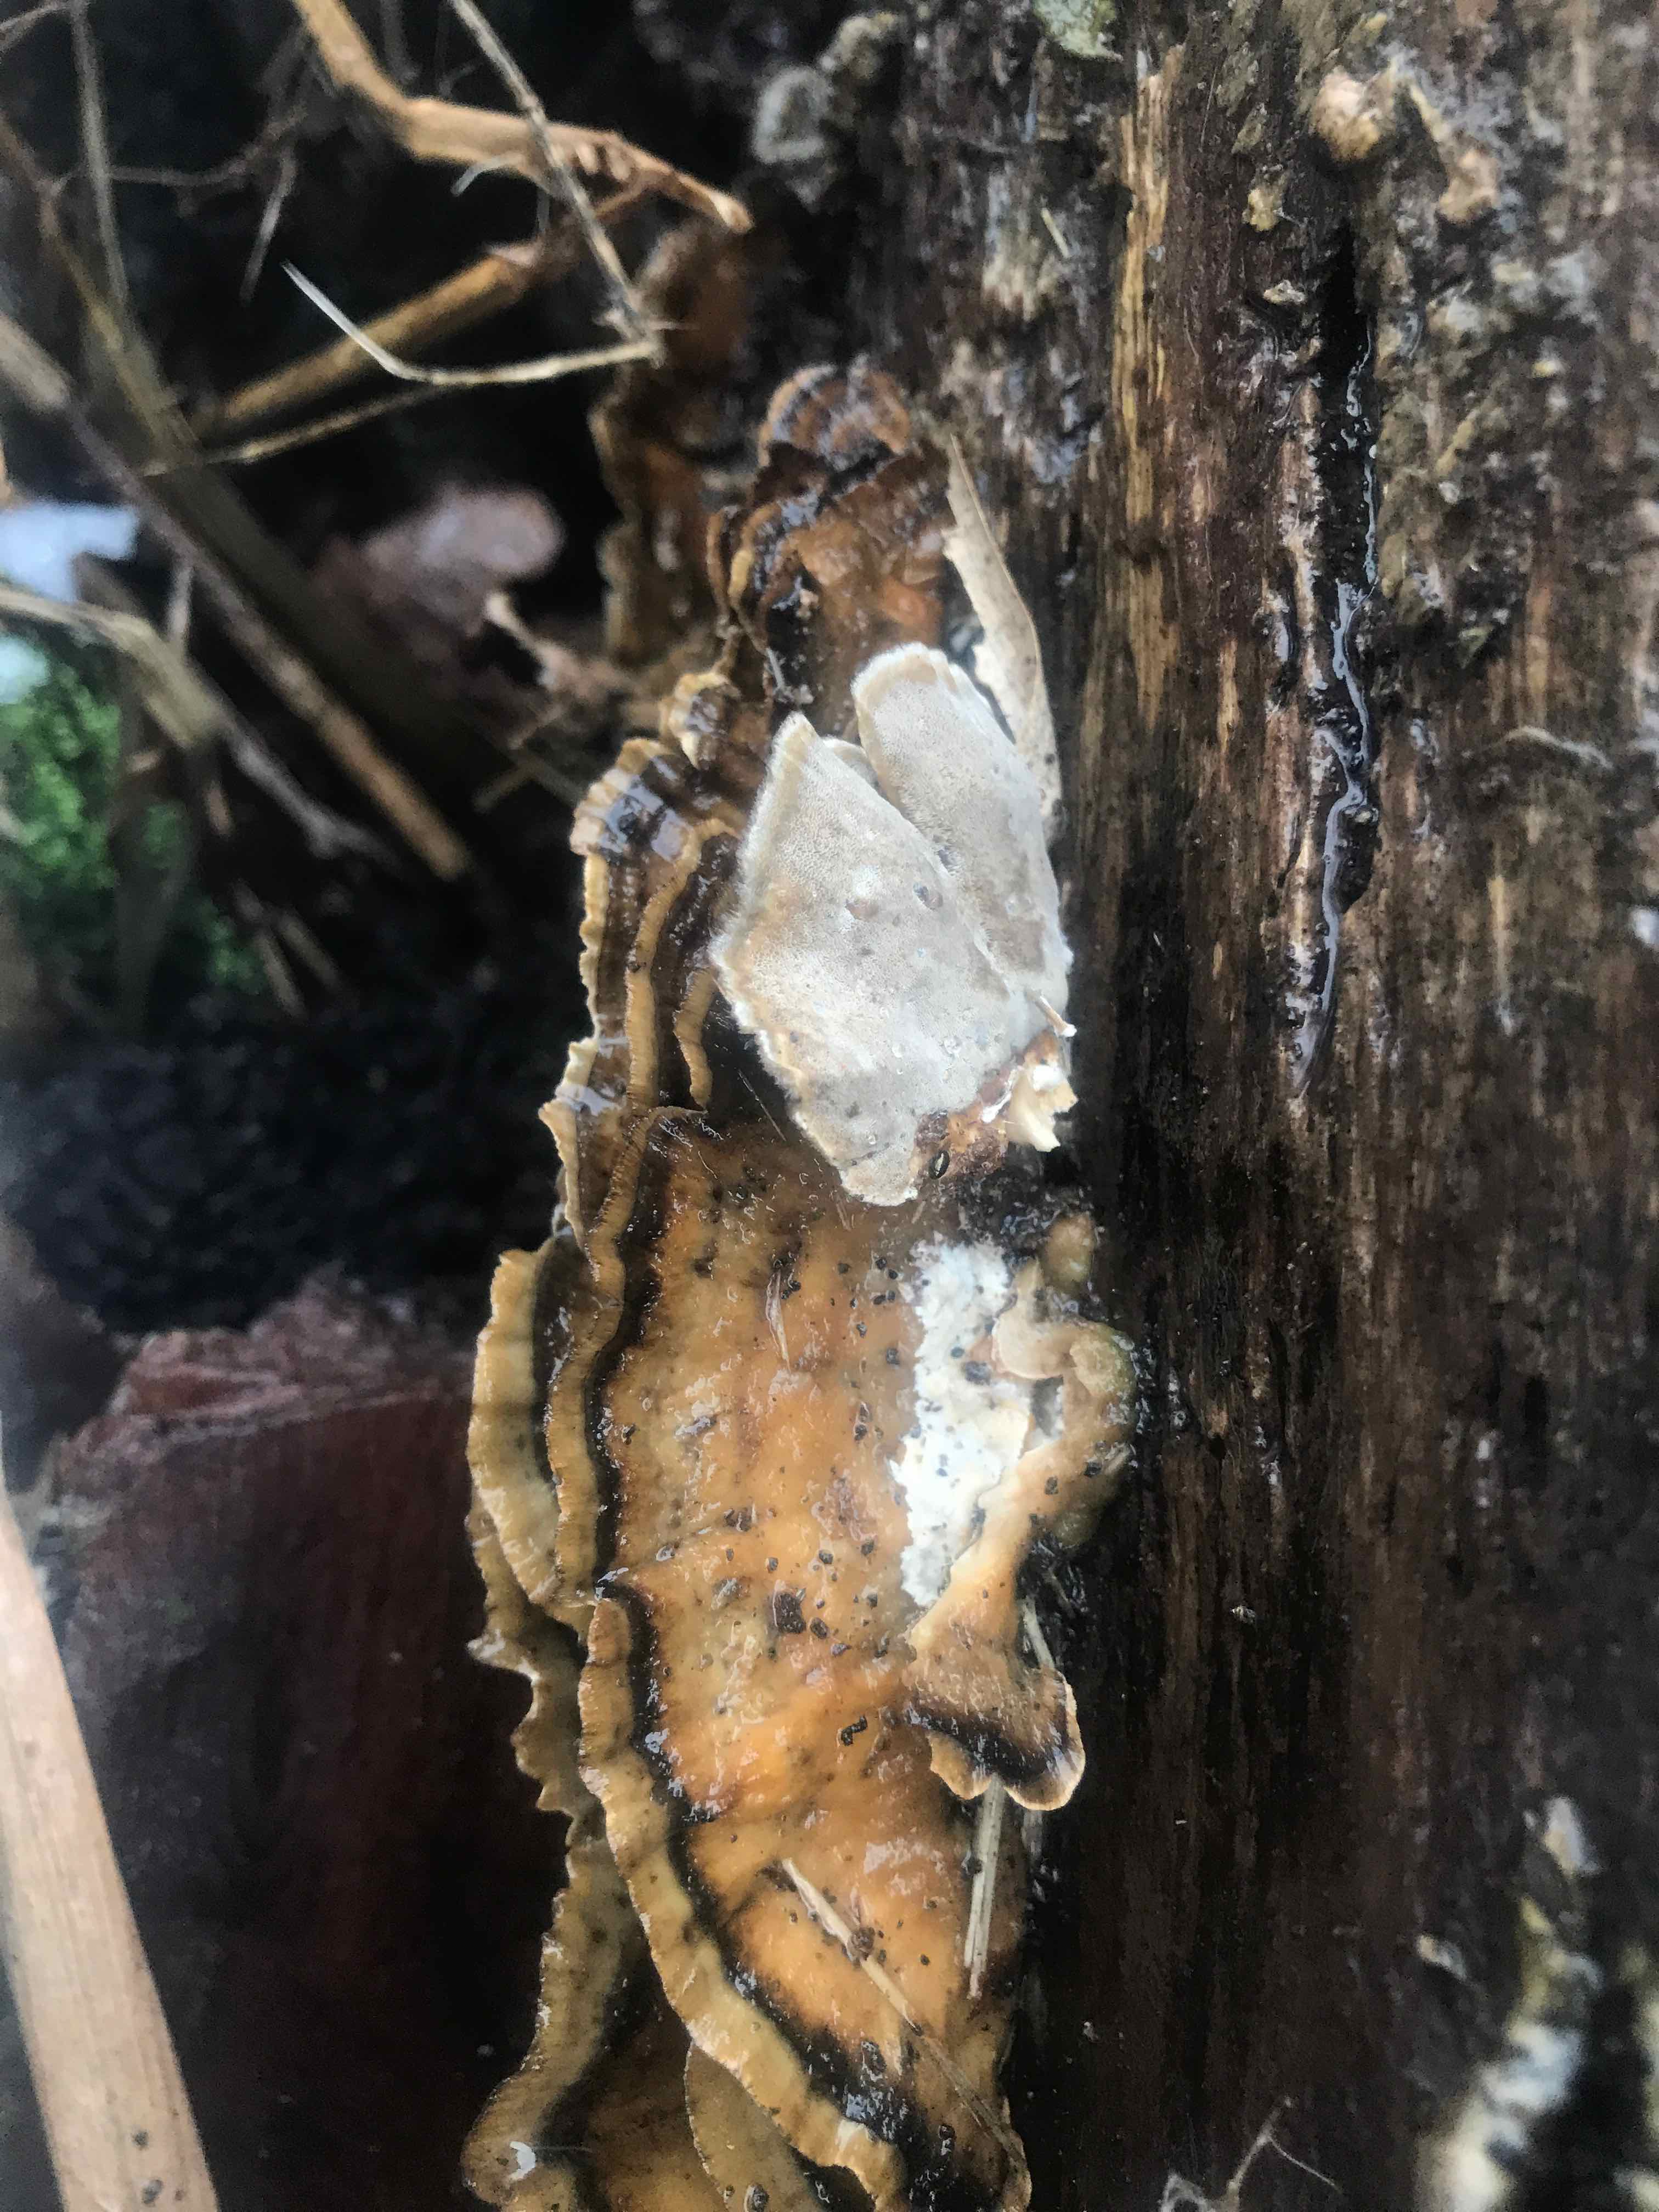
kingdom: Fungi
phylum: Basidiomycota
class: Agaricomycetes
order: Polyporales
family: Phanerochaetaceae
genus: Bjerkandera
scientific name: Bjerkandera adusta
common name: sveden sodporesvamp
